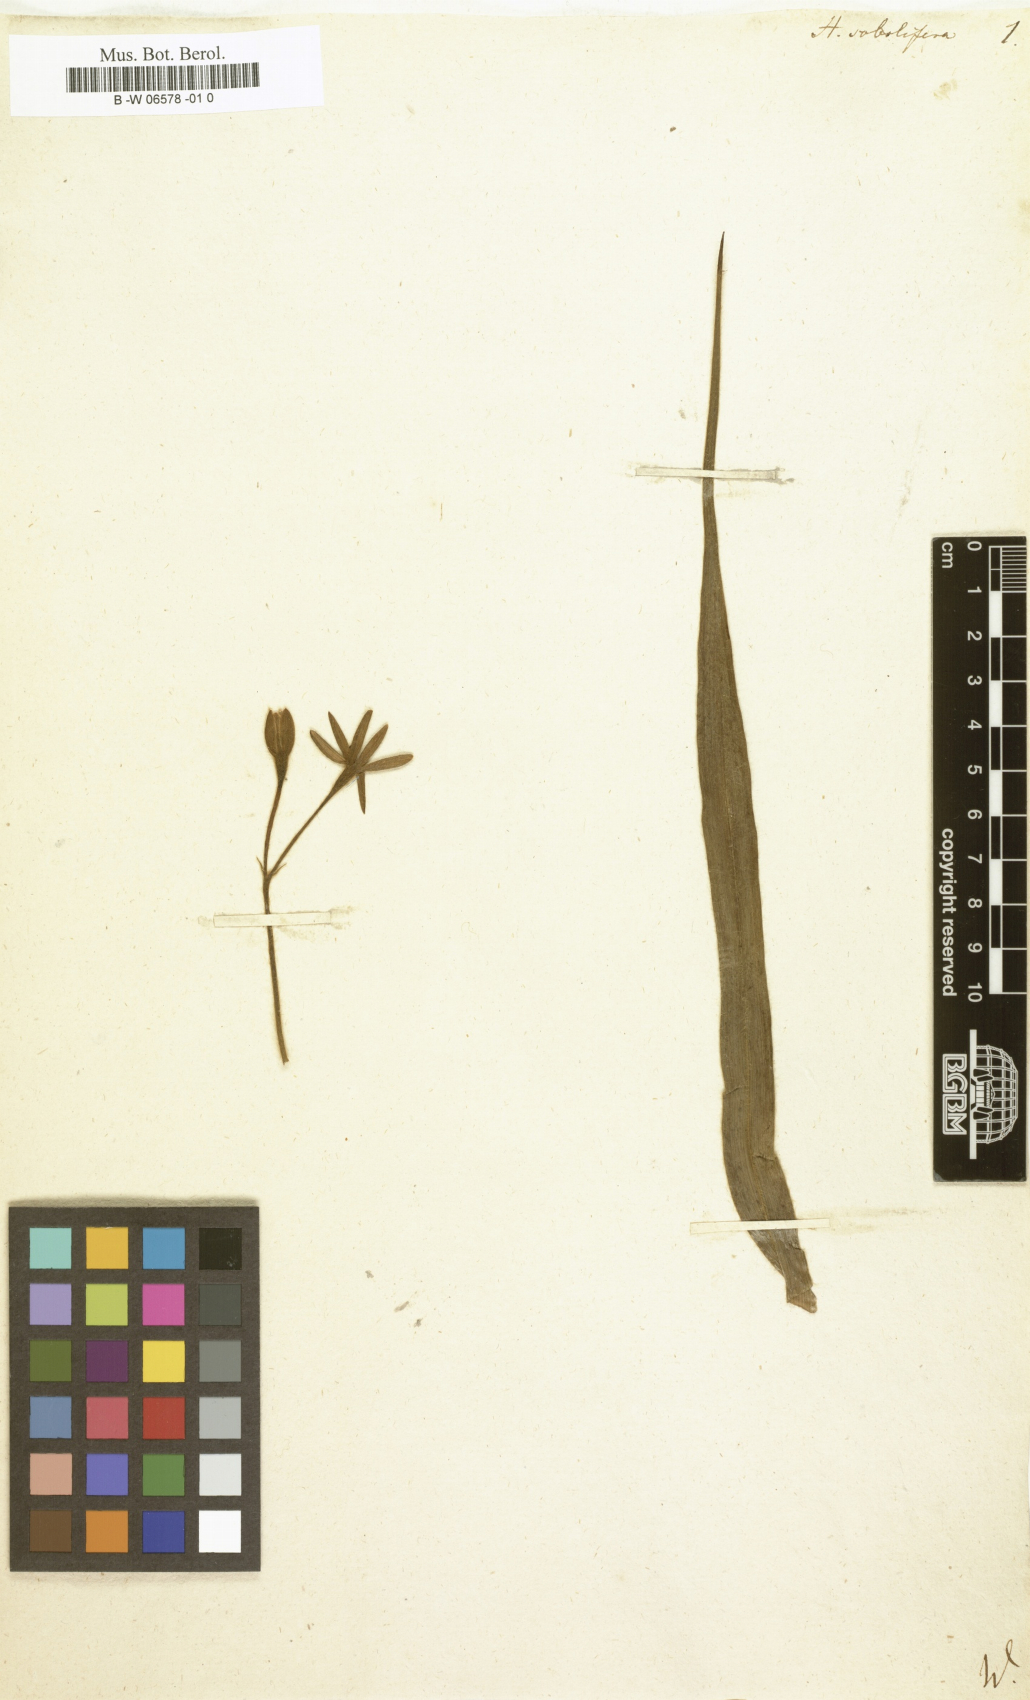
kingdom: Plantae
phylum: Tracheophyta
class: Liliopsida
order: Asparagales
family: Hypoxidaceae
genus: Hypoxis
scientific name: Hypoxis sobolifera
